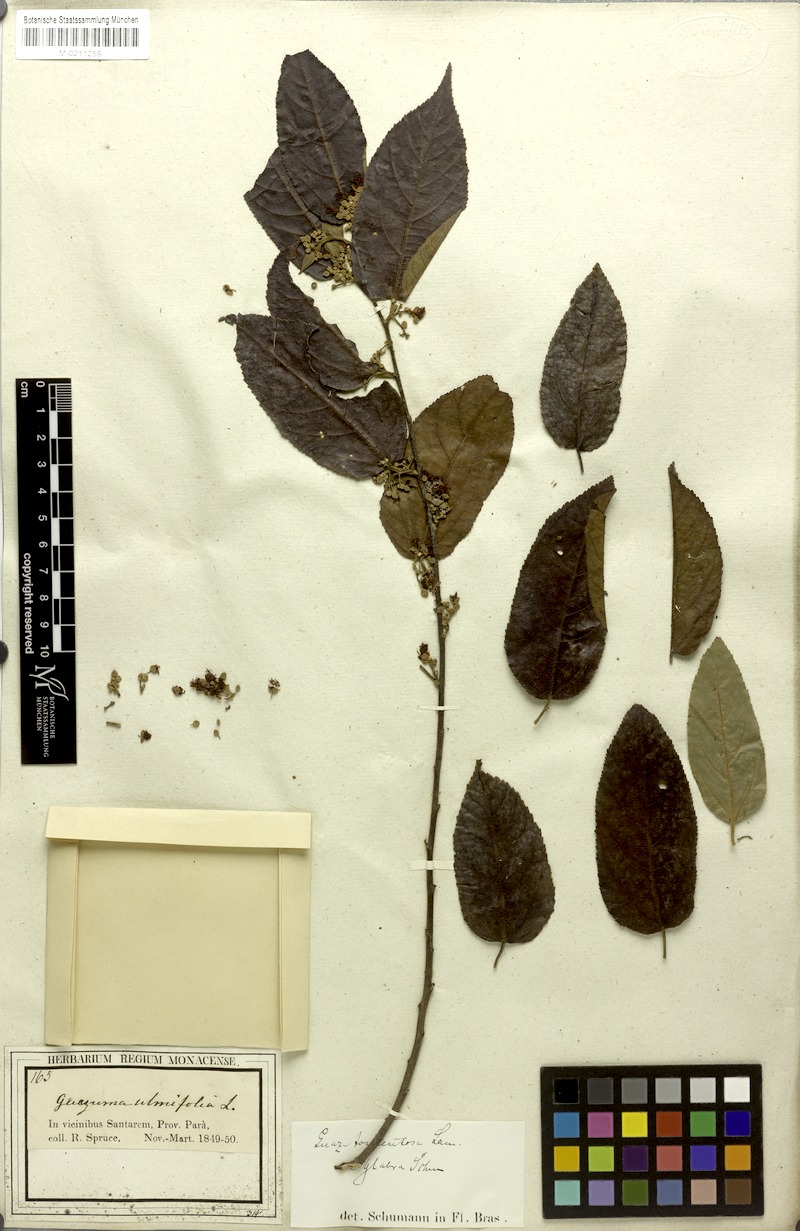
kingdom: Plantae
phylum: Tracheophyta
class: Magnoliopsida
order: Malvales
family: Malvaceae
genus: Guazuma
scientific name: Guazuma ulmifolia
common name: Bastard-cedar
